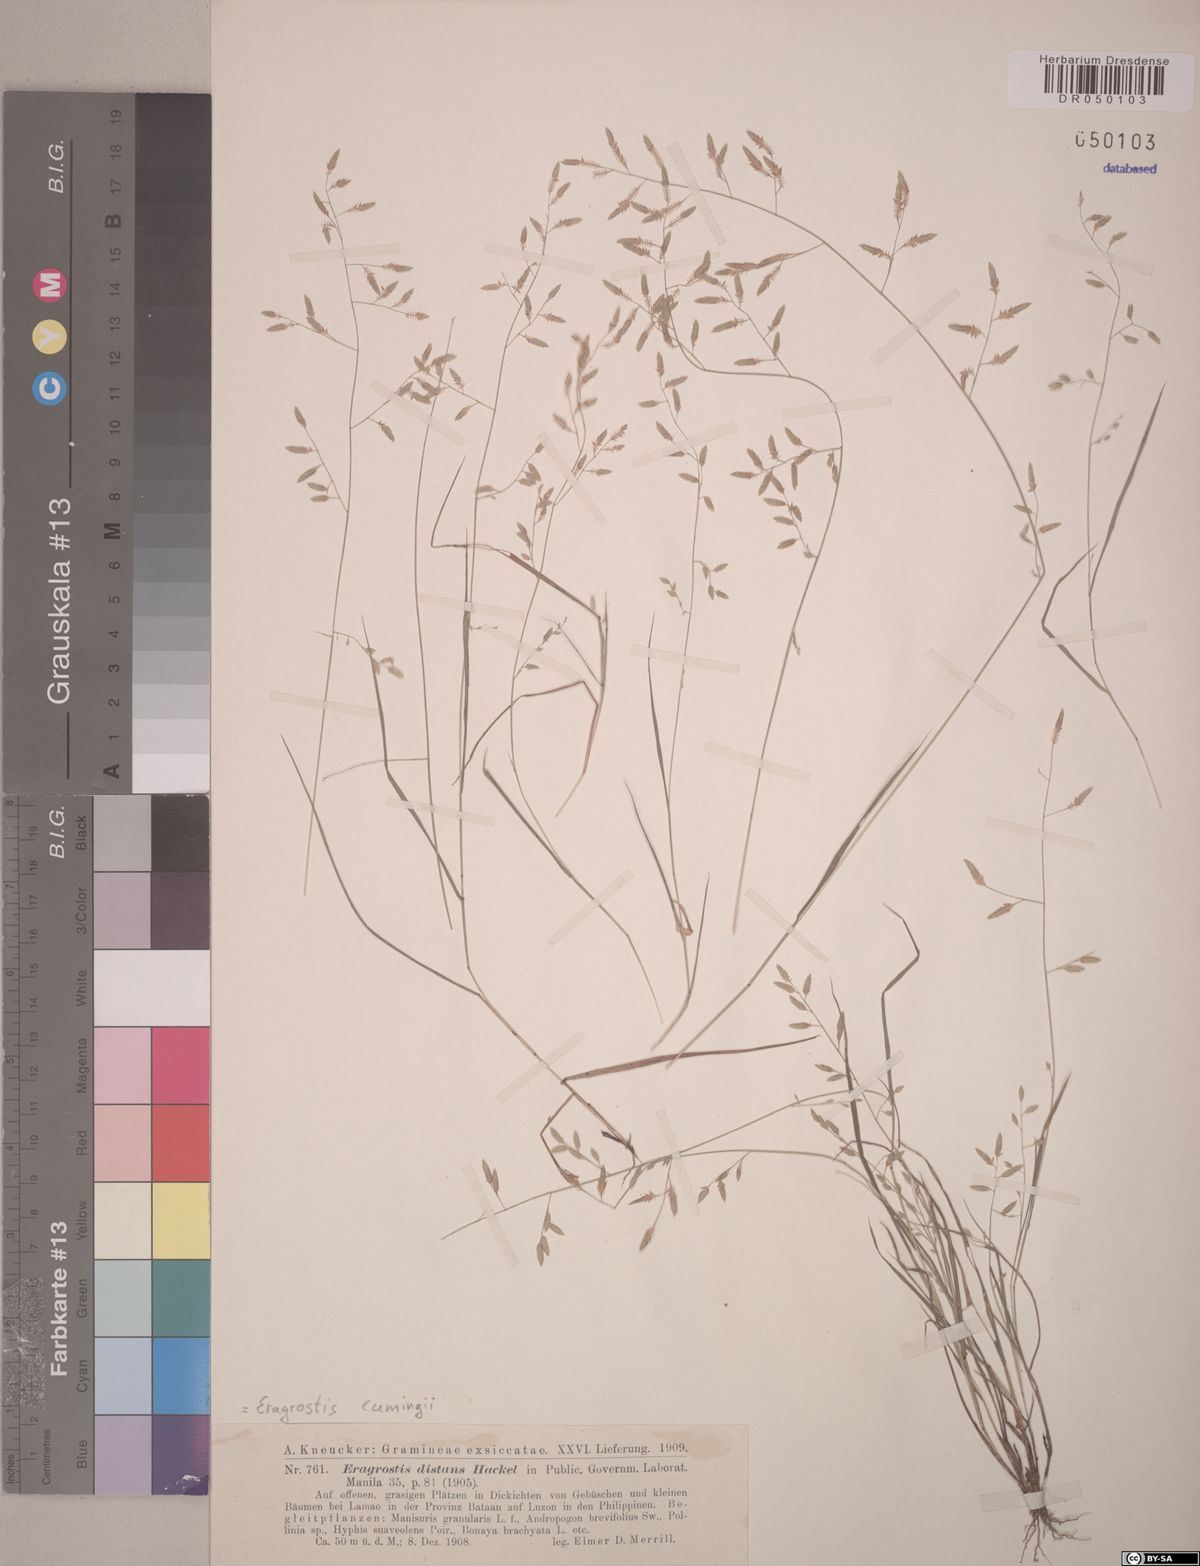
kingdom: Plantae
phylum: Tracheophyta
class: Liliopsida
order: Poales
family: Poaceae
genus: Eragrostis
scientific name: Eragrostis cumingii
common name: Cuming's lovegrass
